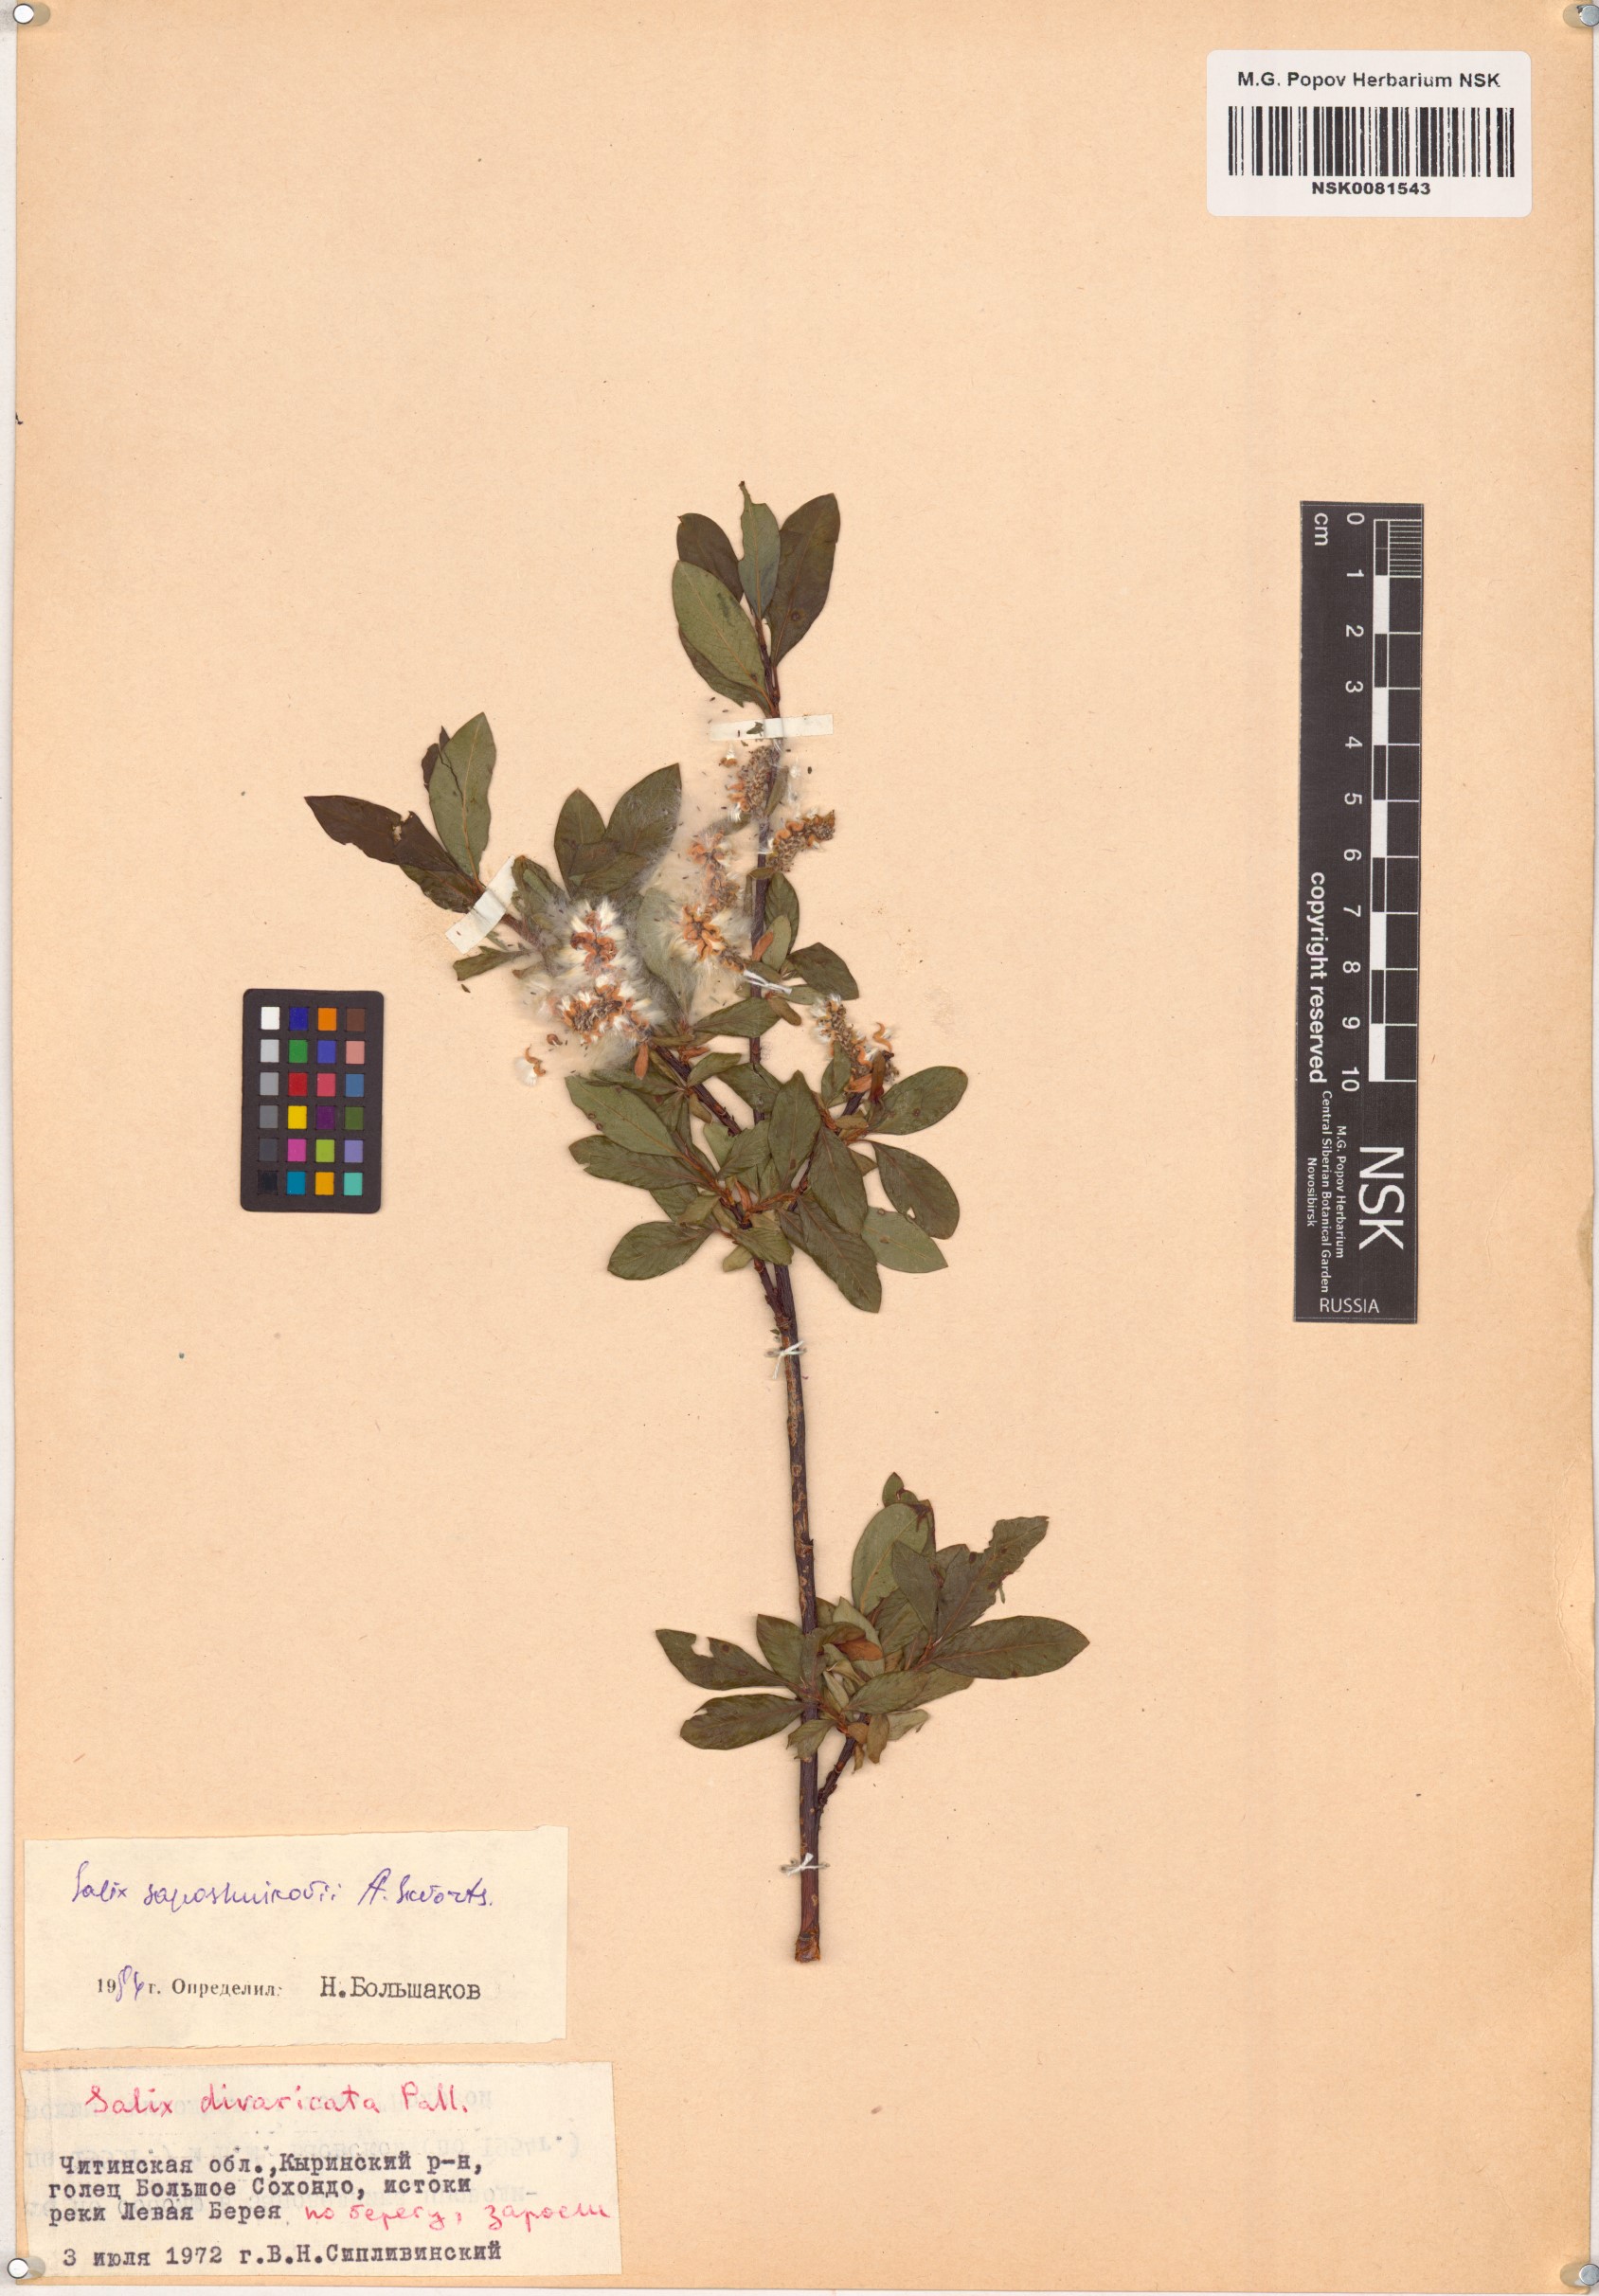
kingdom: Plantae
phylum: Tracheophyta
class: Magnoliopsida
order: Malpighiales
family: Salicaceae
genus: Salix
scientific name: Salix saposhnikovii
